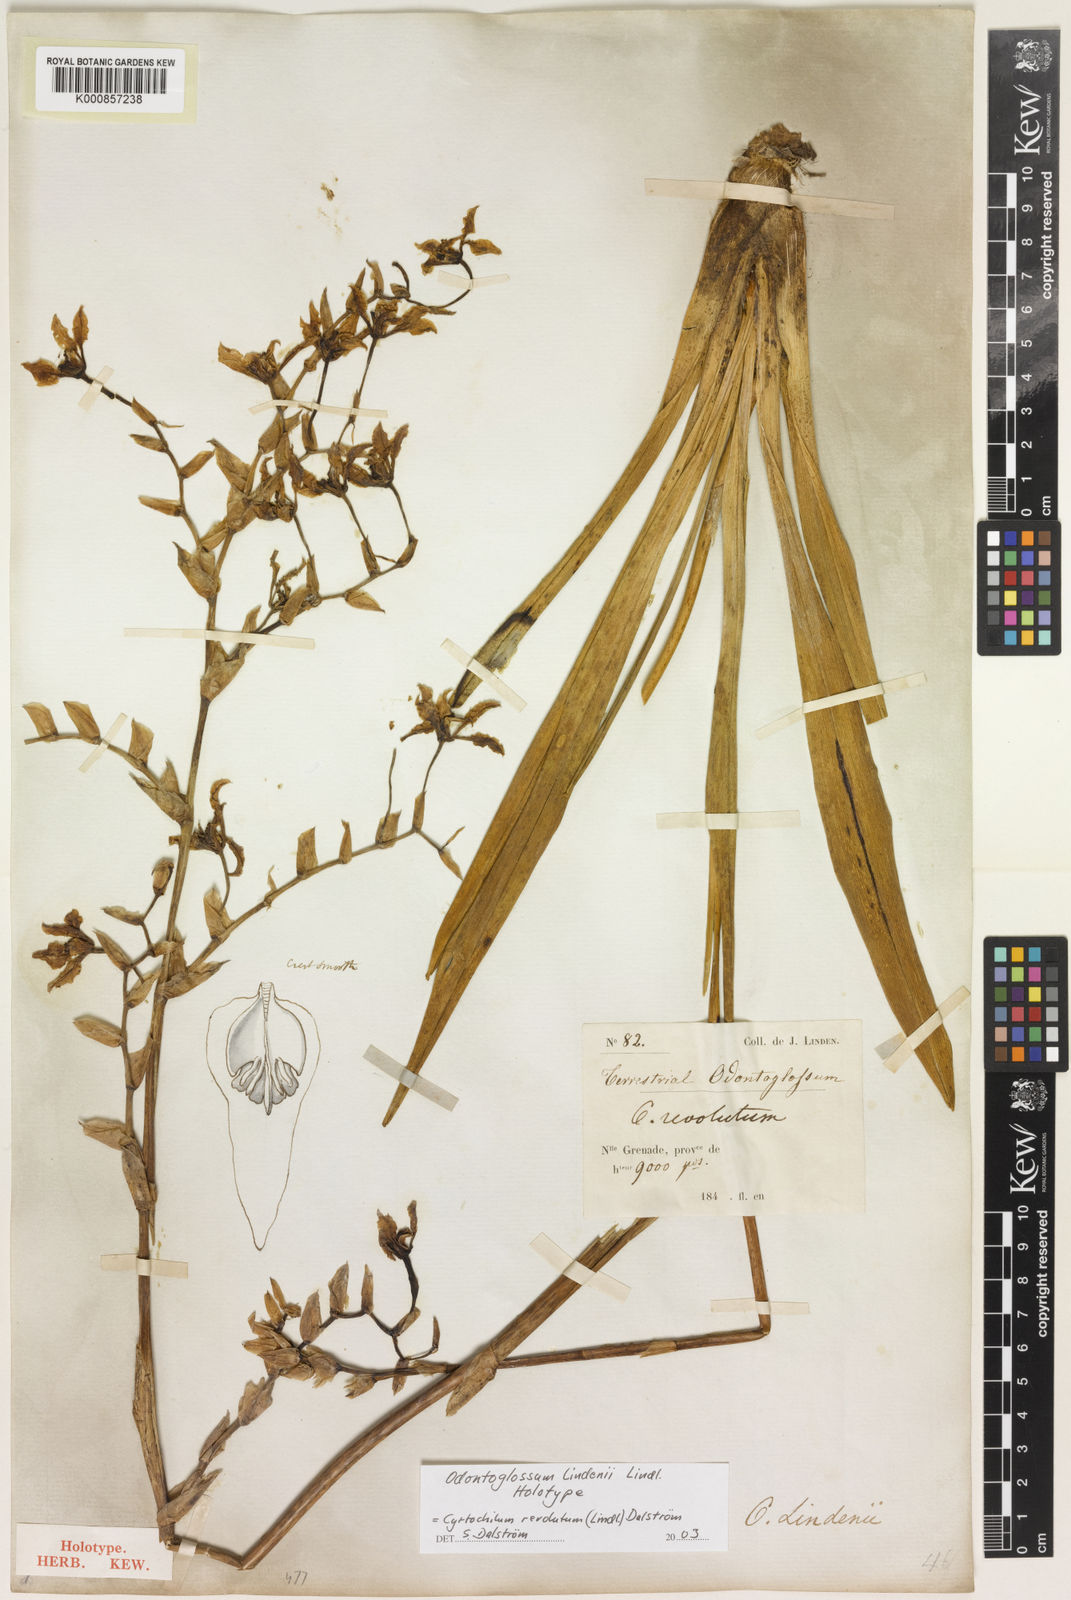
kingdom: Plantae
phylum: Tracheophyta
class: Liliopsida
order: Asparagales
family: Orchidaceae
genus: Cyrtochilum
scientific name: Cyrtochilum
